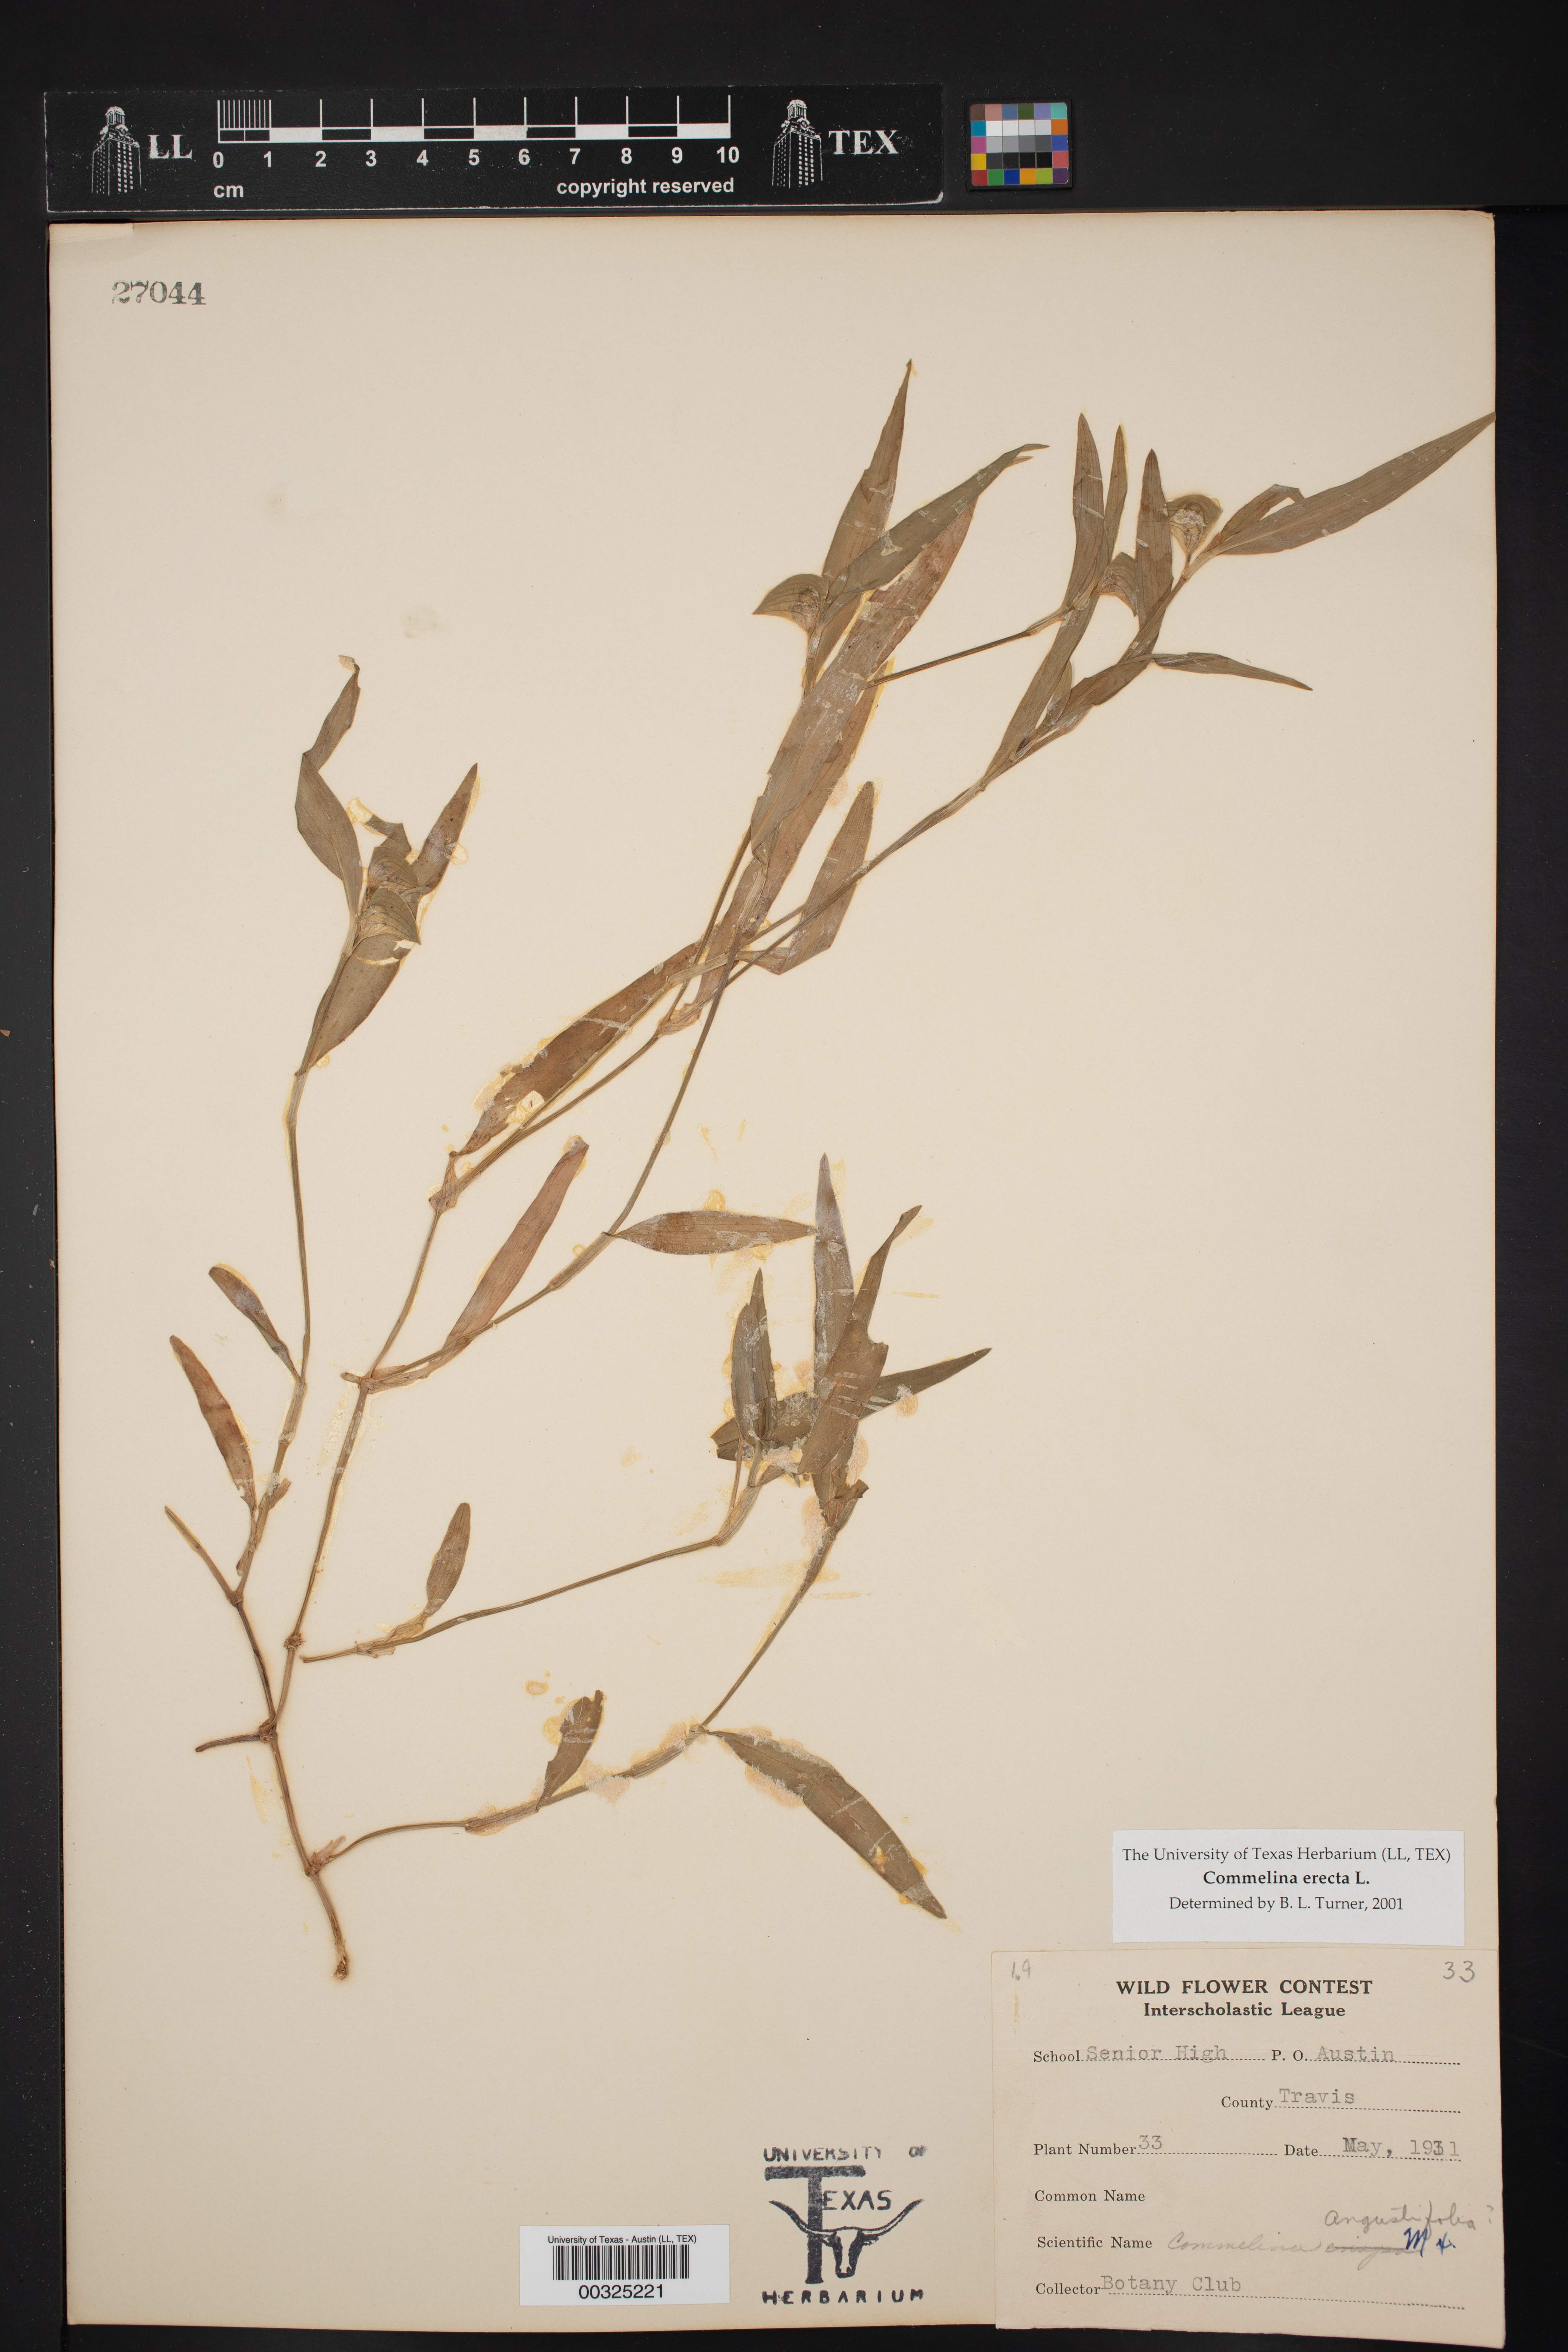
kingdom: Plantae
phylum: Tracheophyta
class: Liliopsida
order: Commelinales
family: Commelinaceae
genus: Commelina
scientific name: Commelina erecta
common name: Blousel blommetjie
